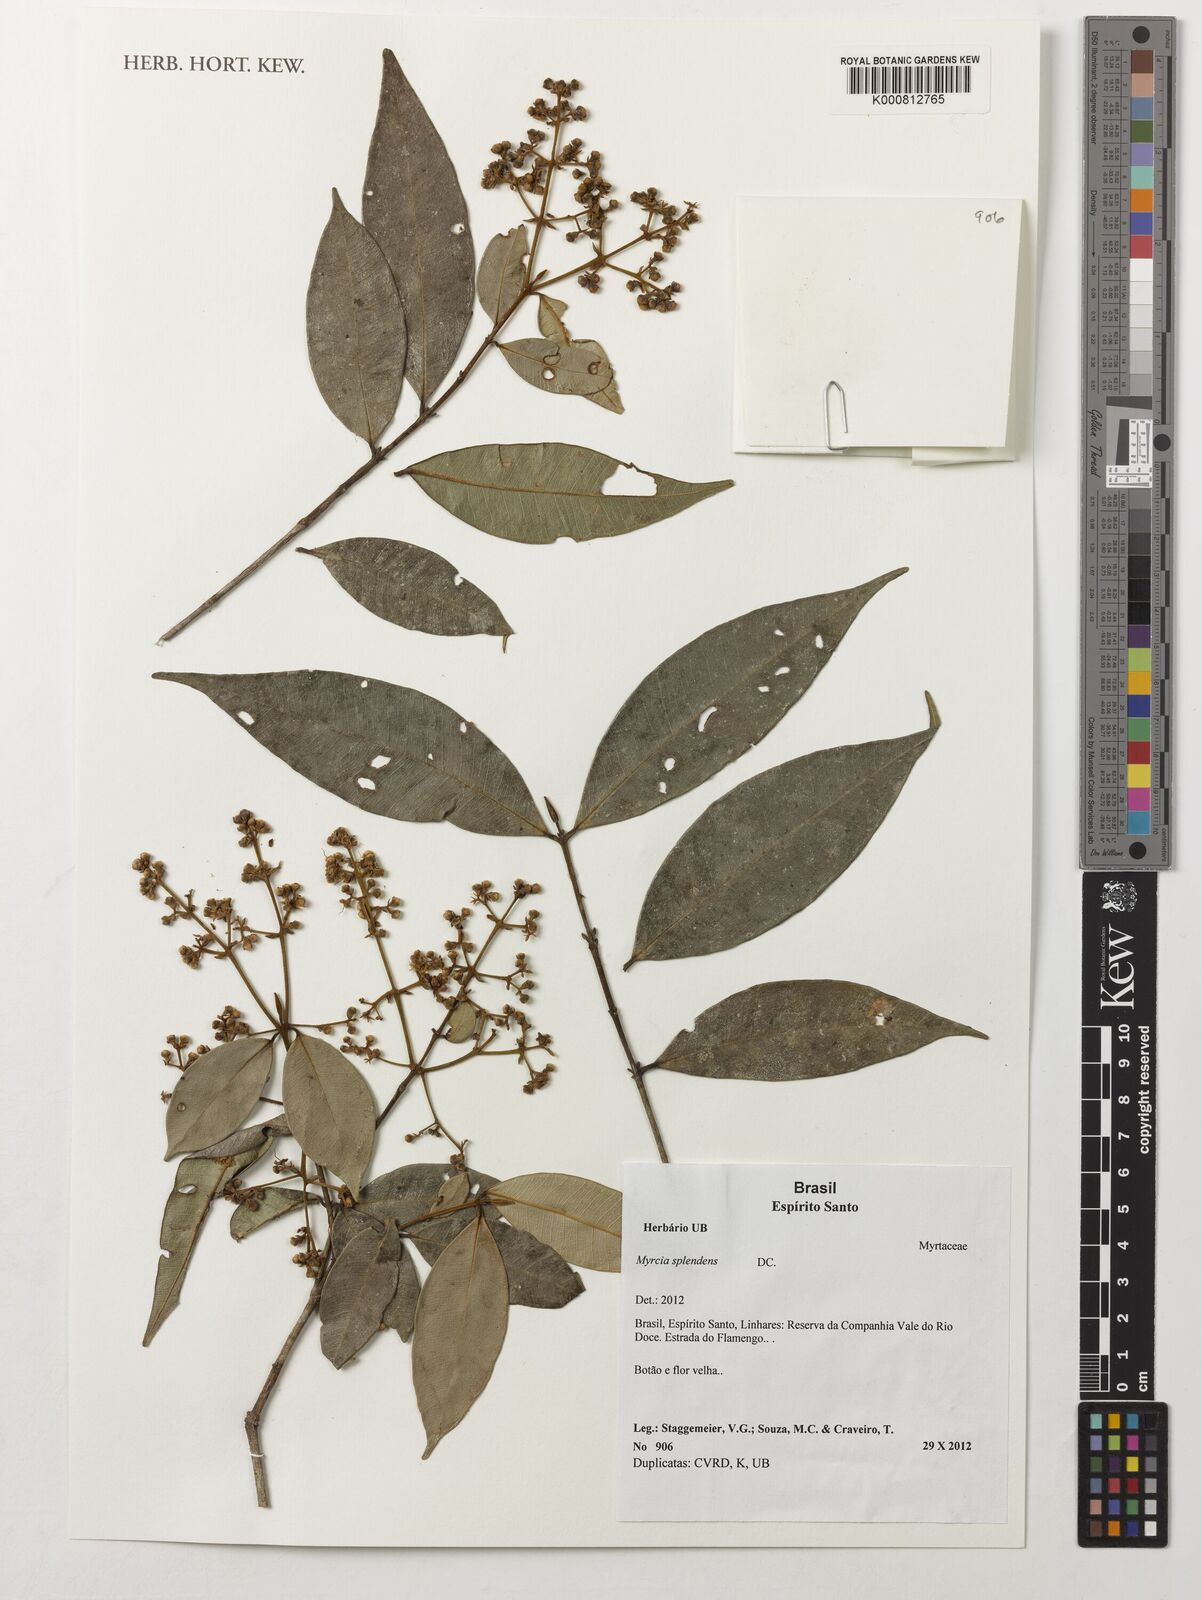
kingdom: Plantae
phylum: Tracheophyta
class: Magnoliopsida
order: Myrtales
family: Myrtaceae
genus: Myrcia
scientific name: Myrcia splendens
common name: Surinam cherry
